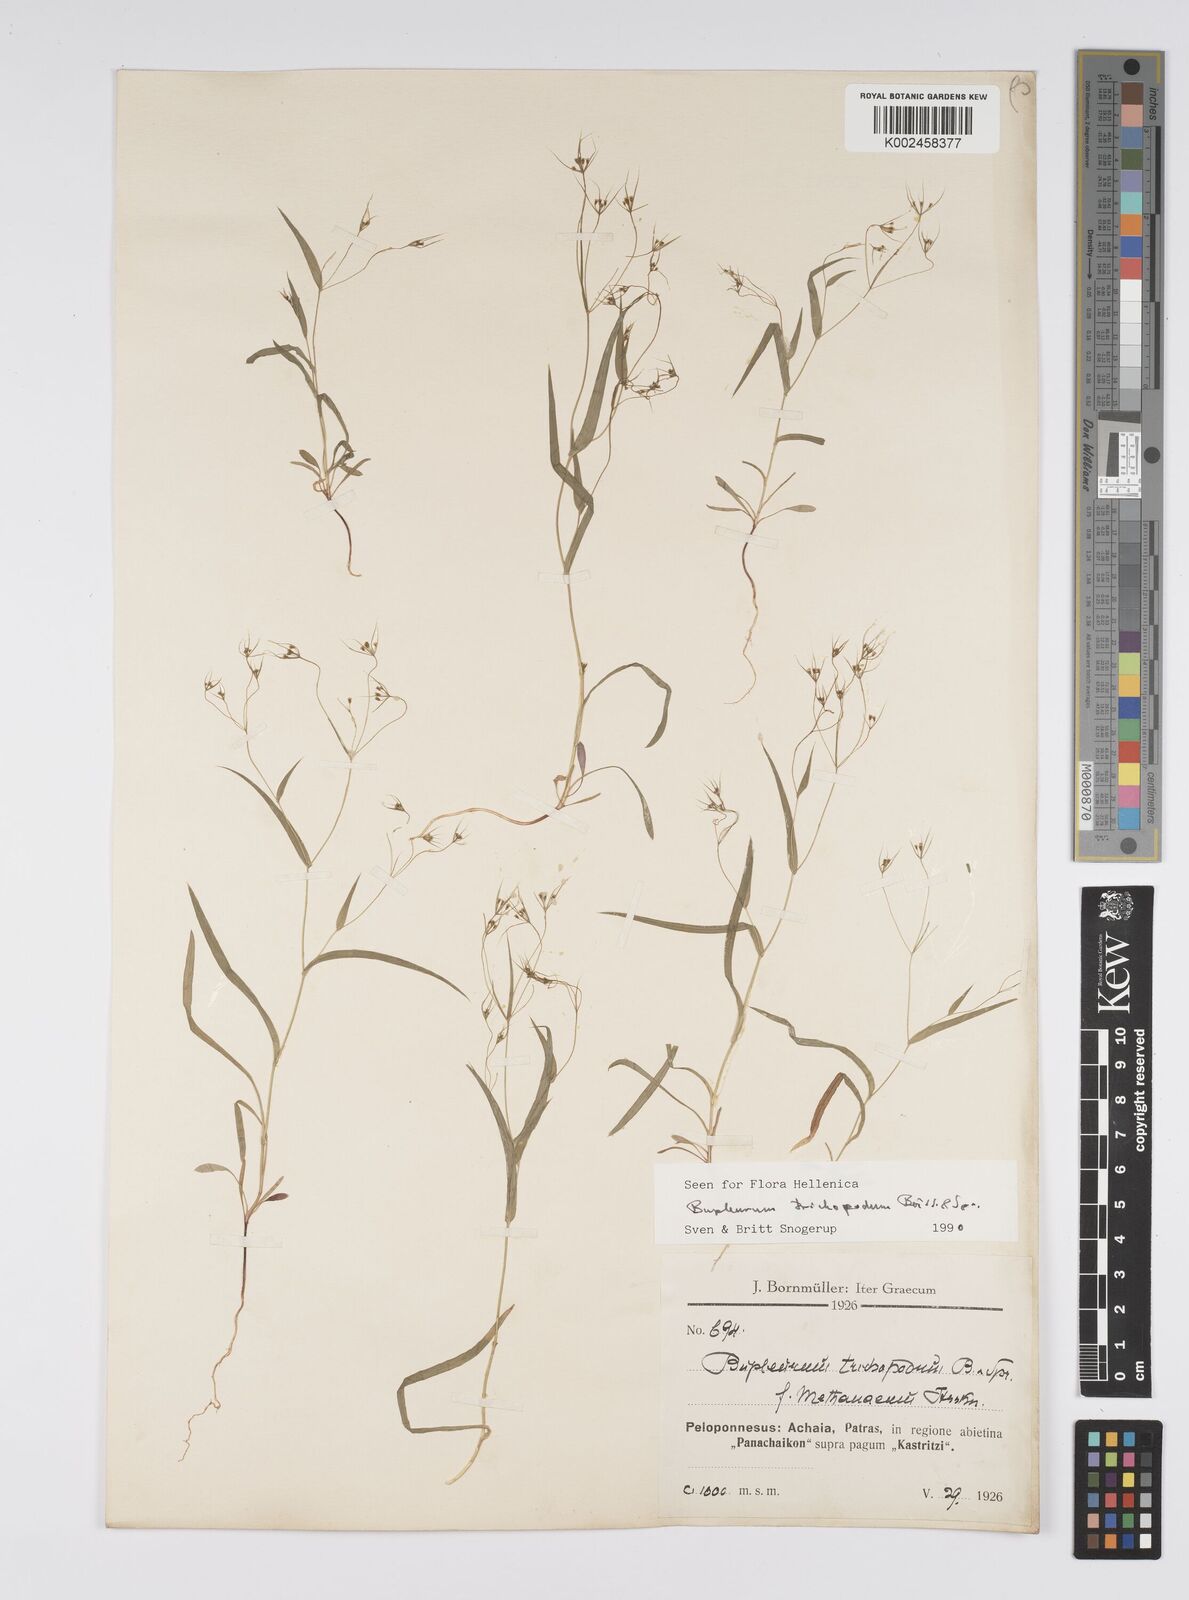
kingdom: Plantae
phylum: Tracheophyta
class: Magnoliopsida
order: Apiales
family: Apiaceae
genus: Bupleurum
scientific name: Bupleurum trichopodum
